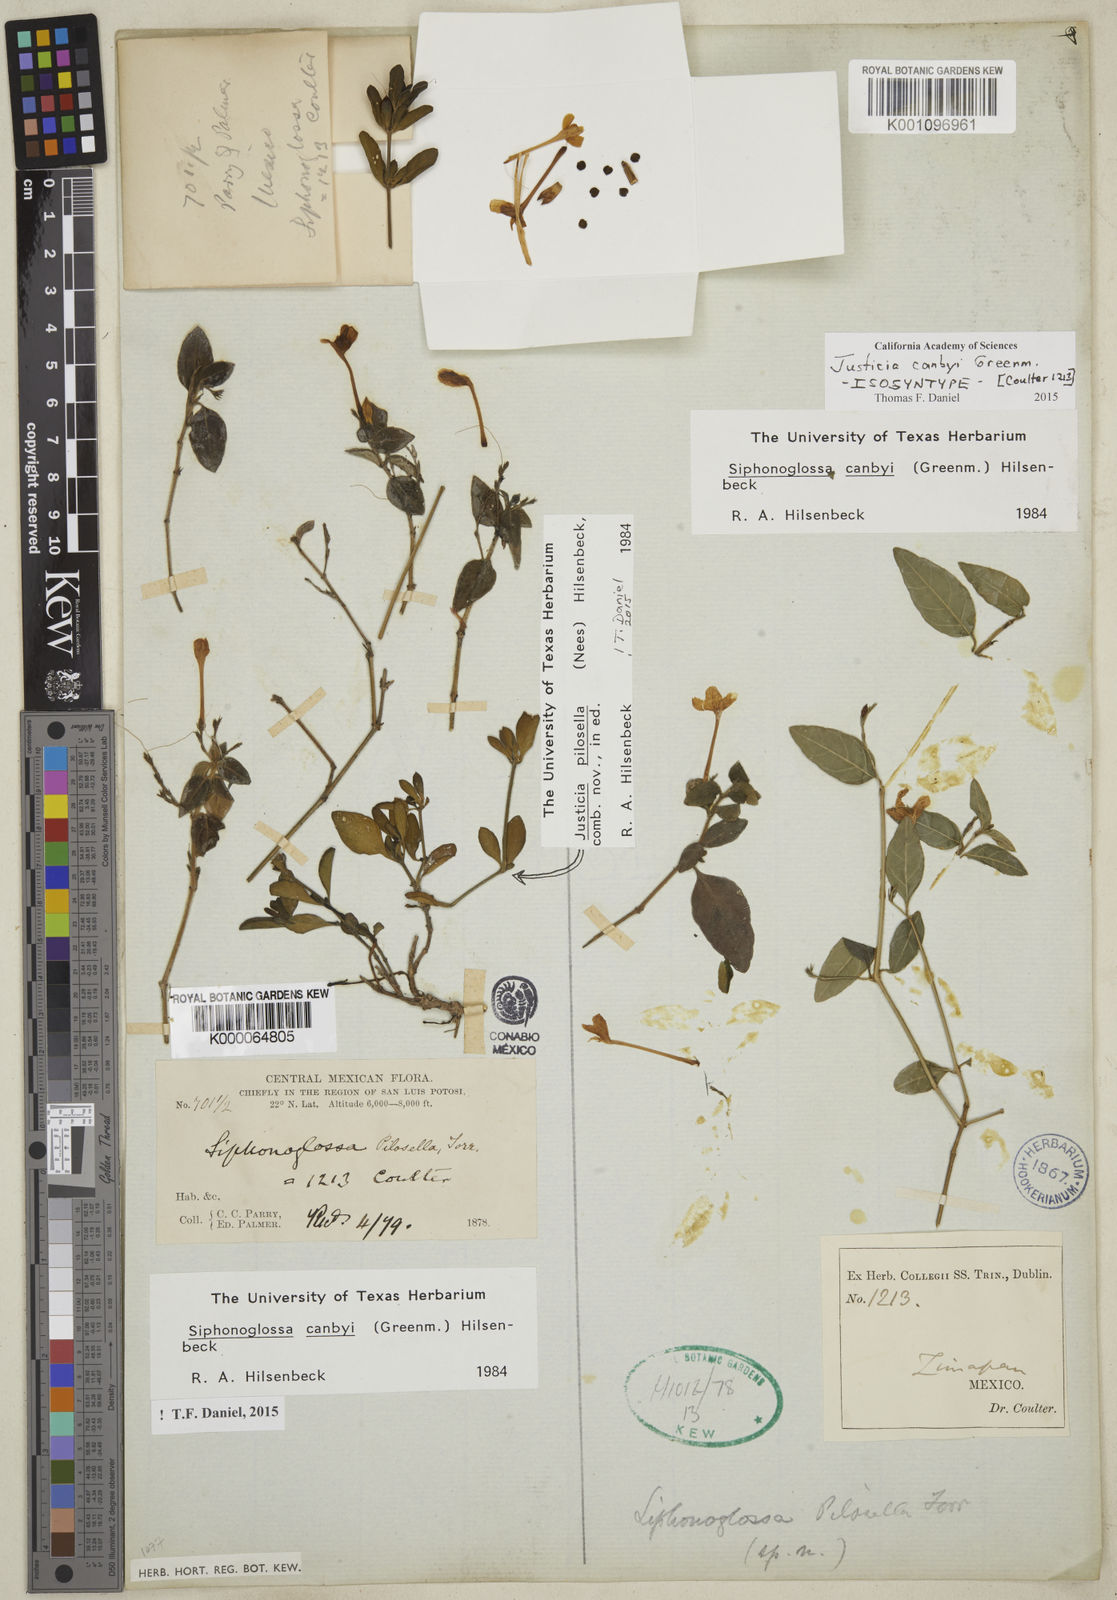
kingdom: Plantae
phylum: Tracheophyta
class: Magnoliopsida
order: Lamiales
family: Acanthaceae
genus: Justicia
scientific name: Justicia canbyi
